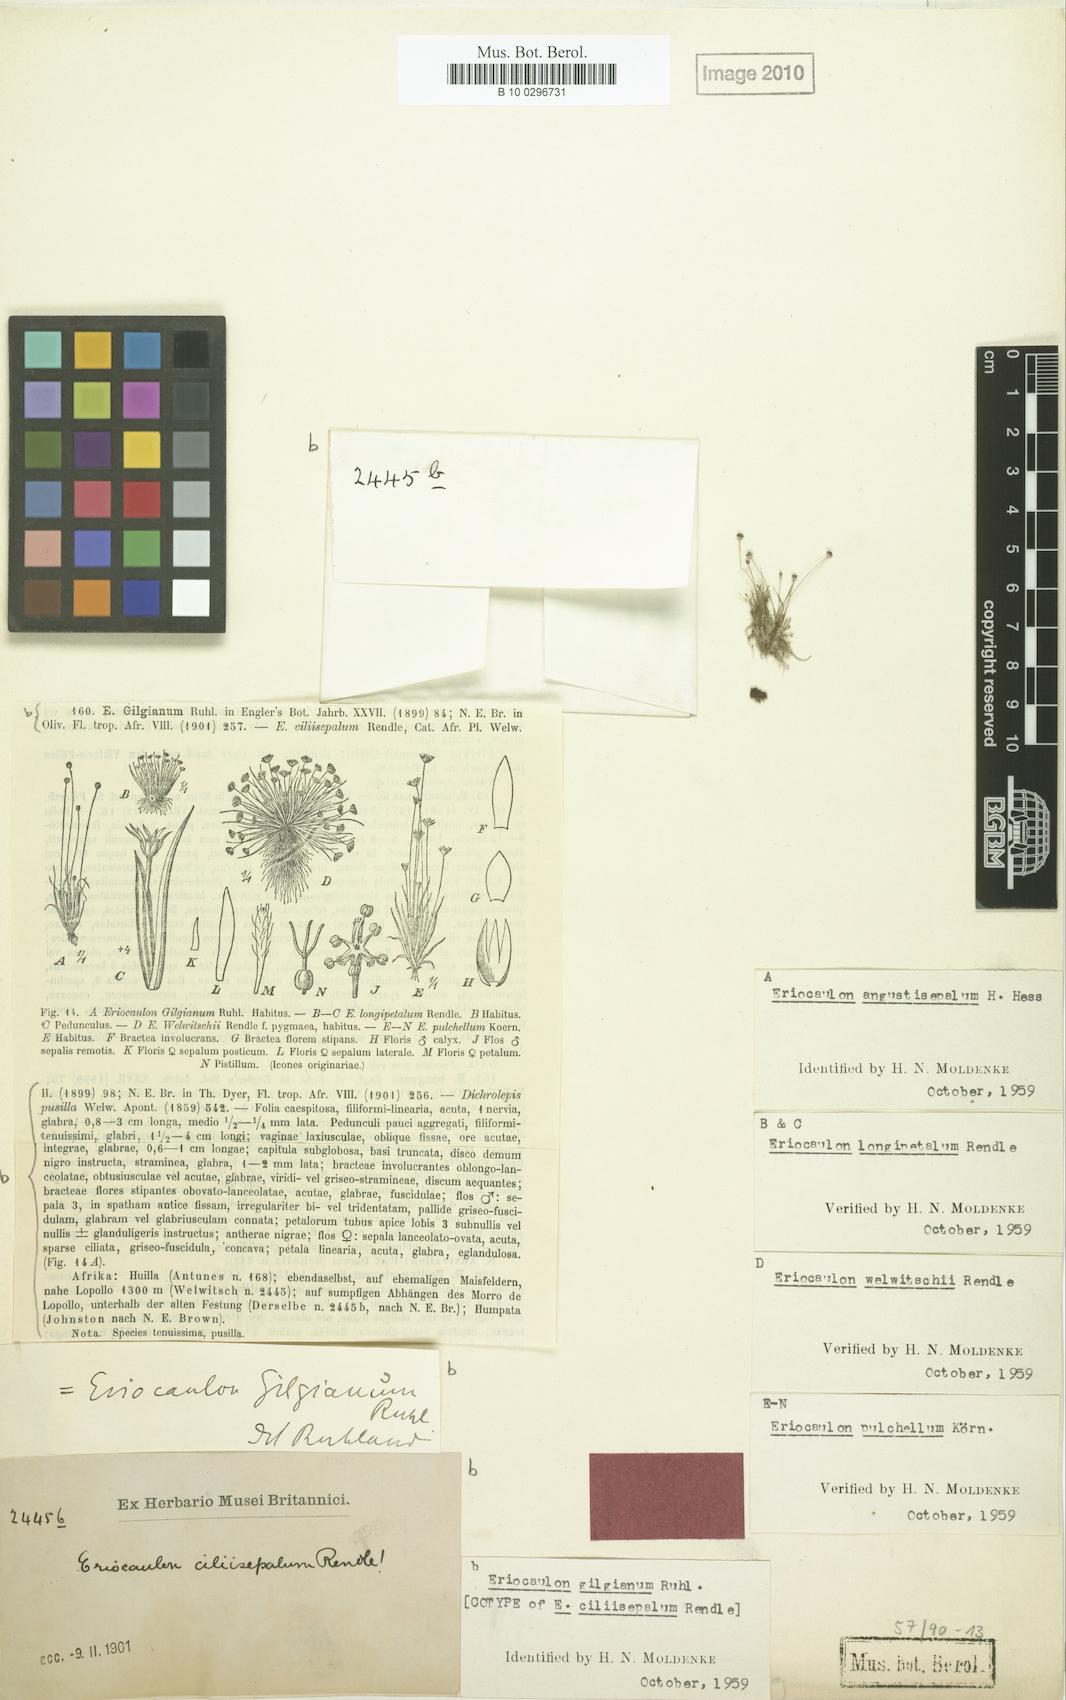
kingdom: Plantae
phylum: Tracheophyta
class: Liliopsida
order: Poales
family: Eriocaulaceae
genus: Eriocaulon
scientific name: Eriocaulon abyssinicum
